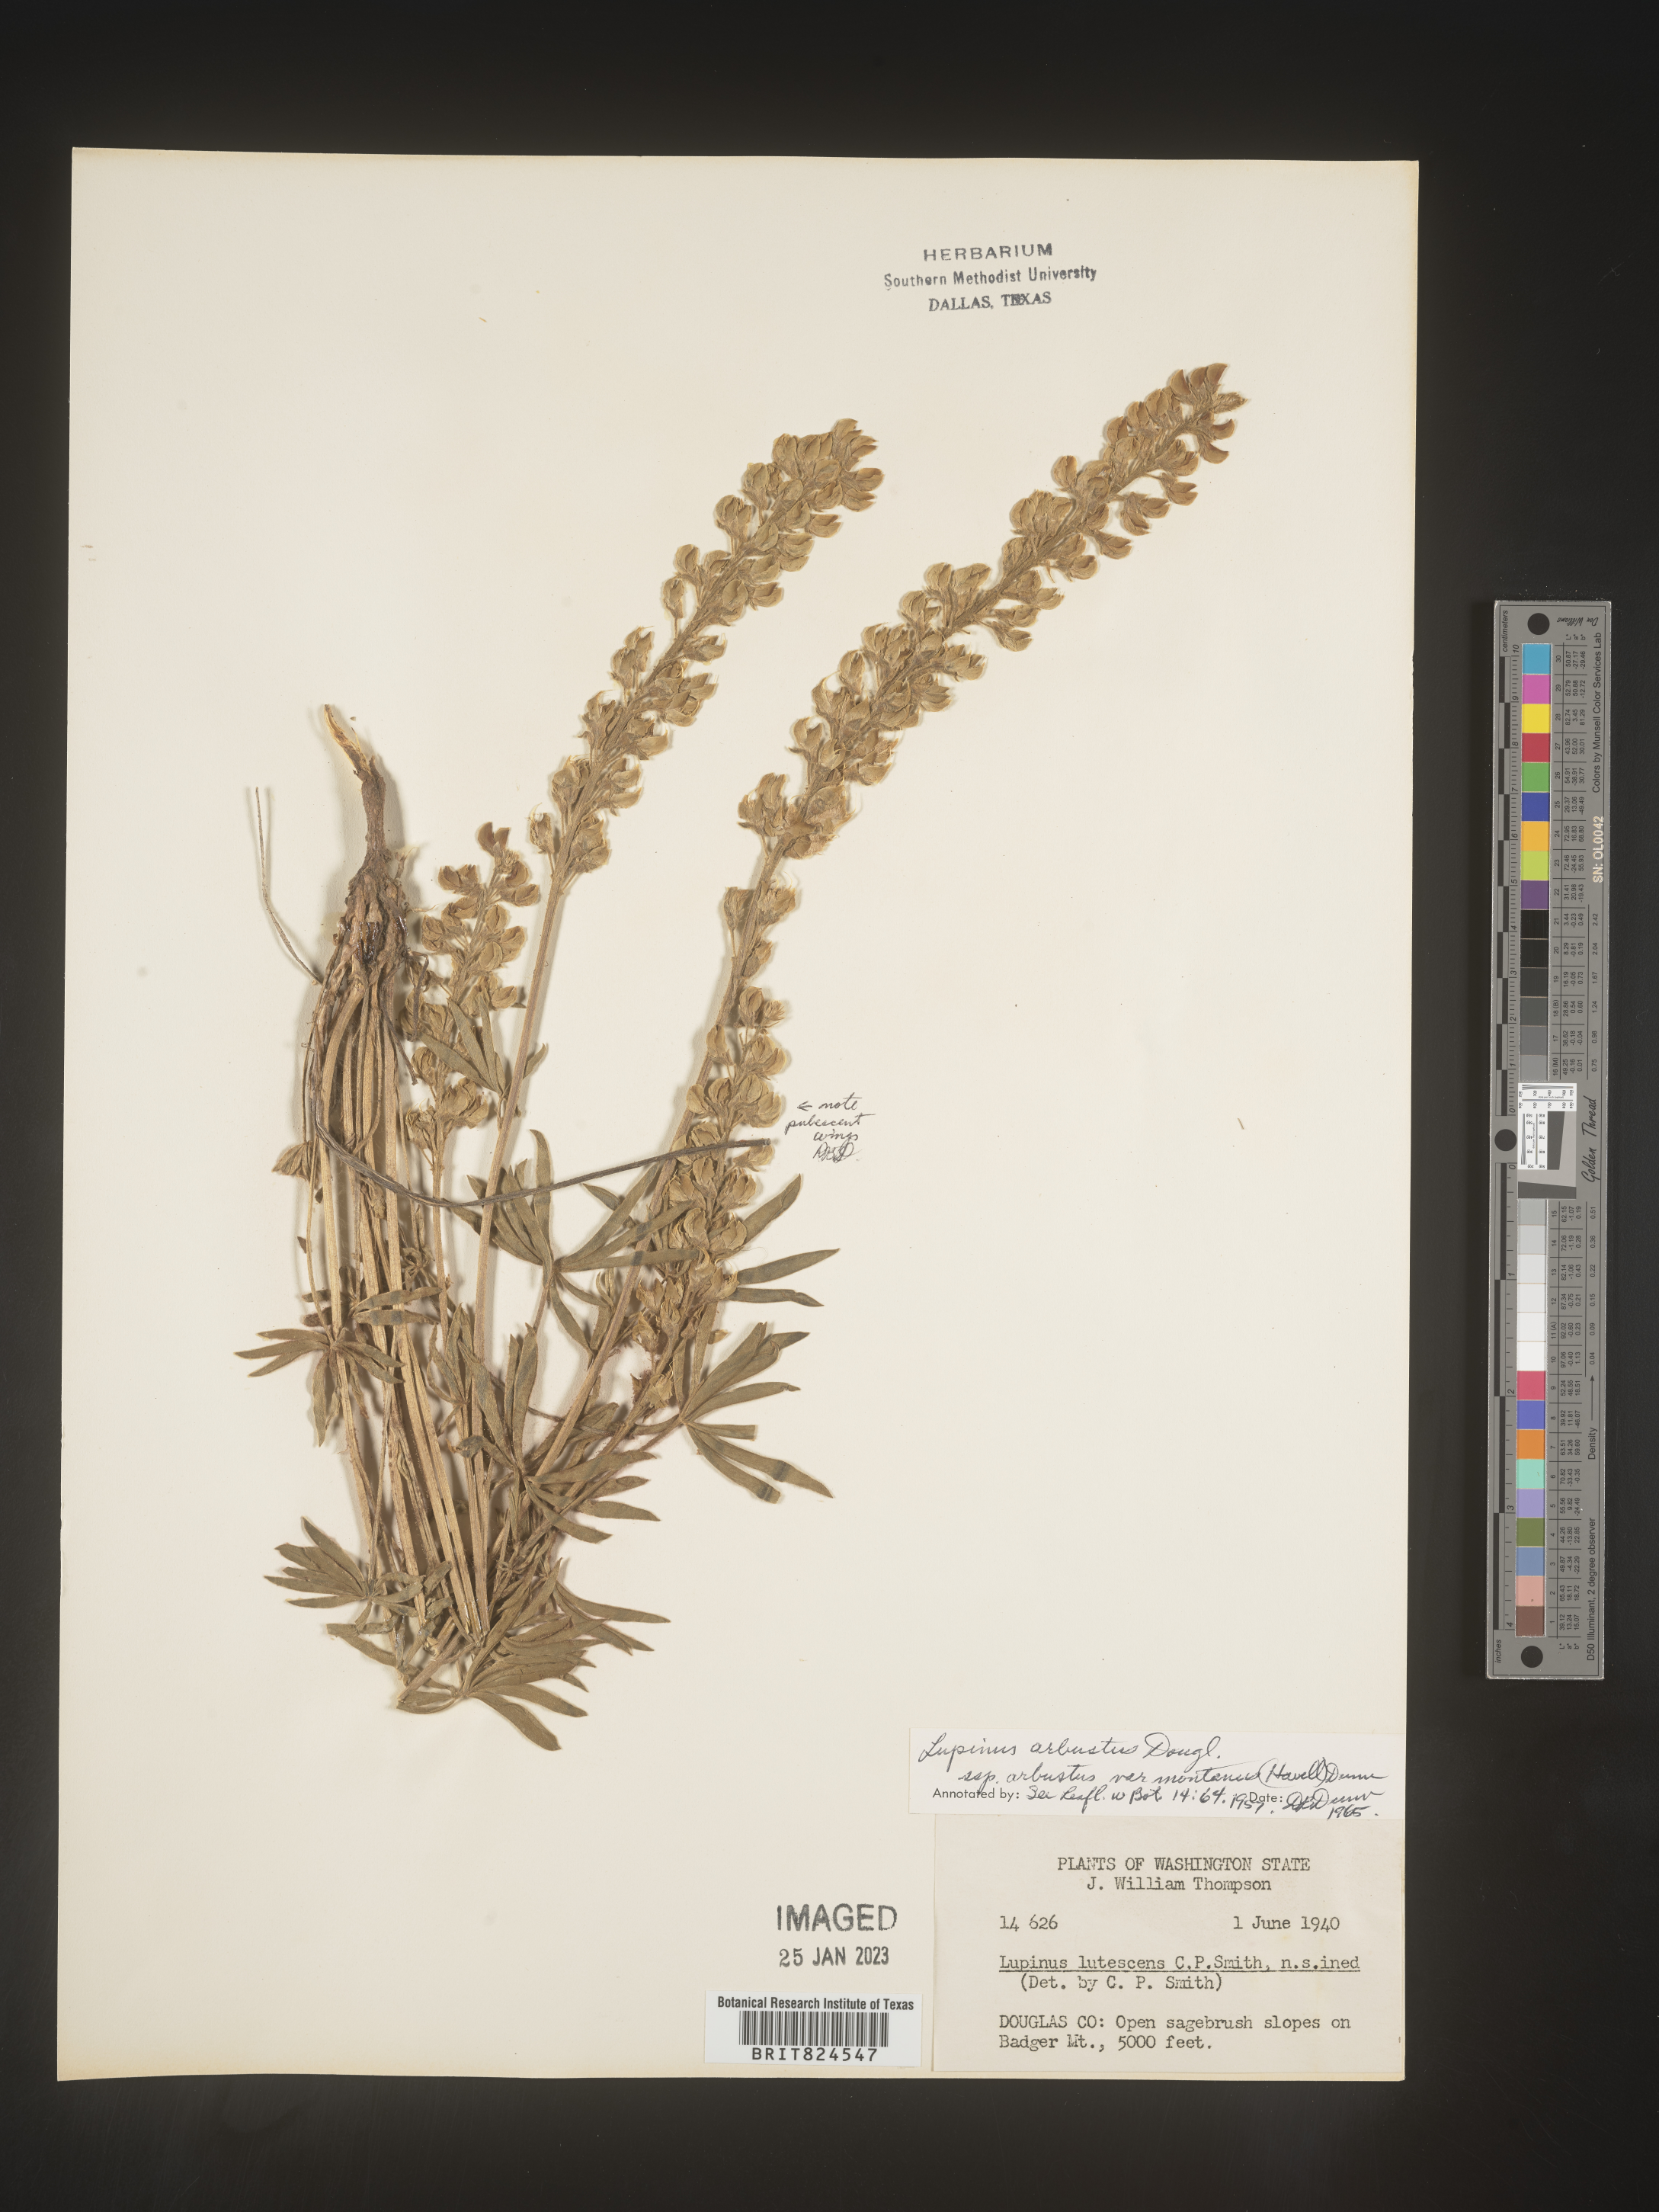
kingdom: Plantae
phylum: Tracheophyta
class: Magnoliopsida
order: Fabales
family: Fabaceae
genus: Lupinus
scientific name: Lupinus arbustus
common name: Montana lupine
